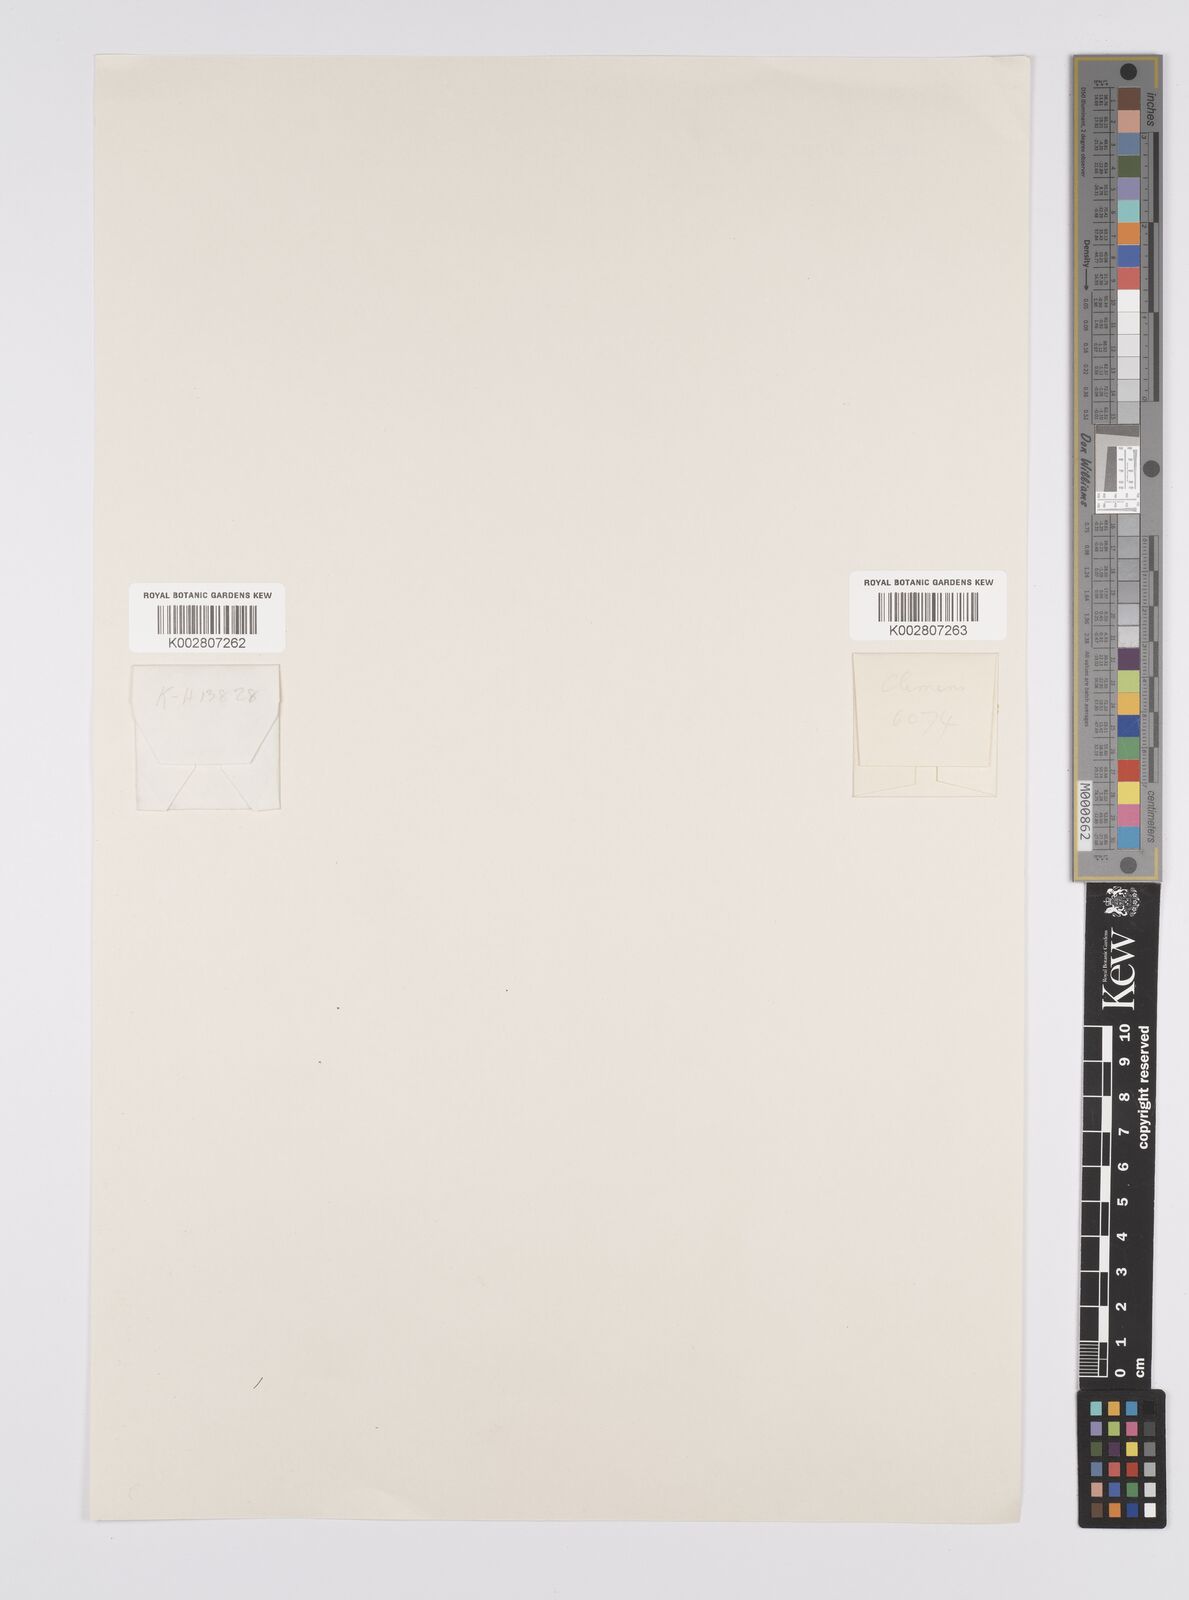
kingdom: Plantae
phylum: Tracheophyta
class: Liliopsida
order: Poales
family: Cyperaceae
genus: Carex
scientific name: Carex
